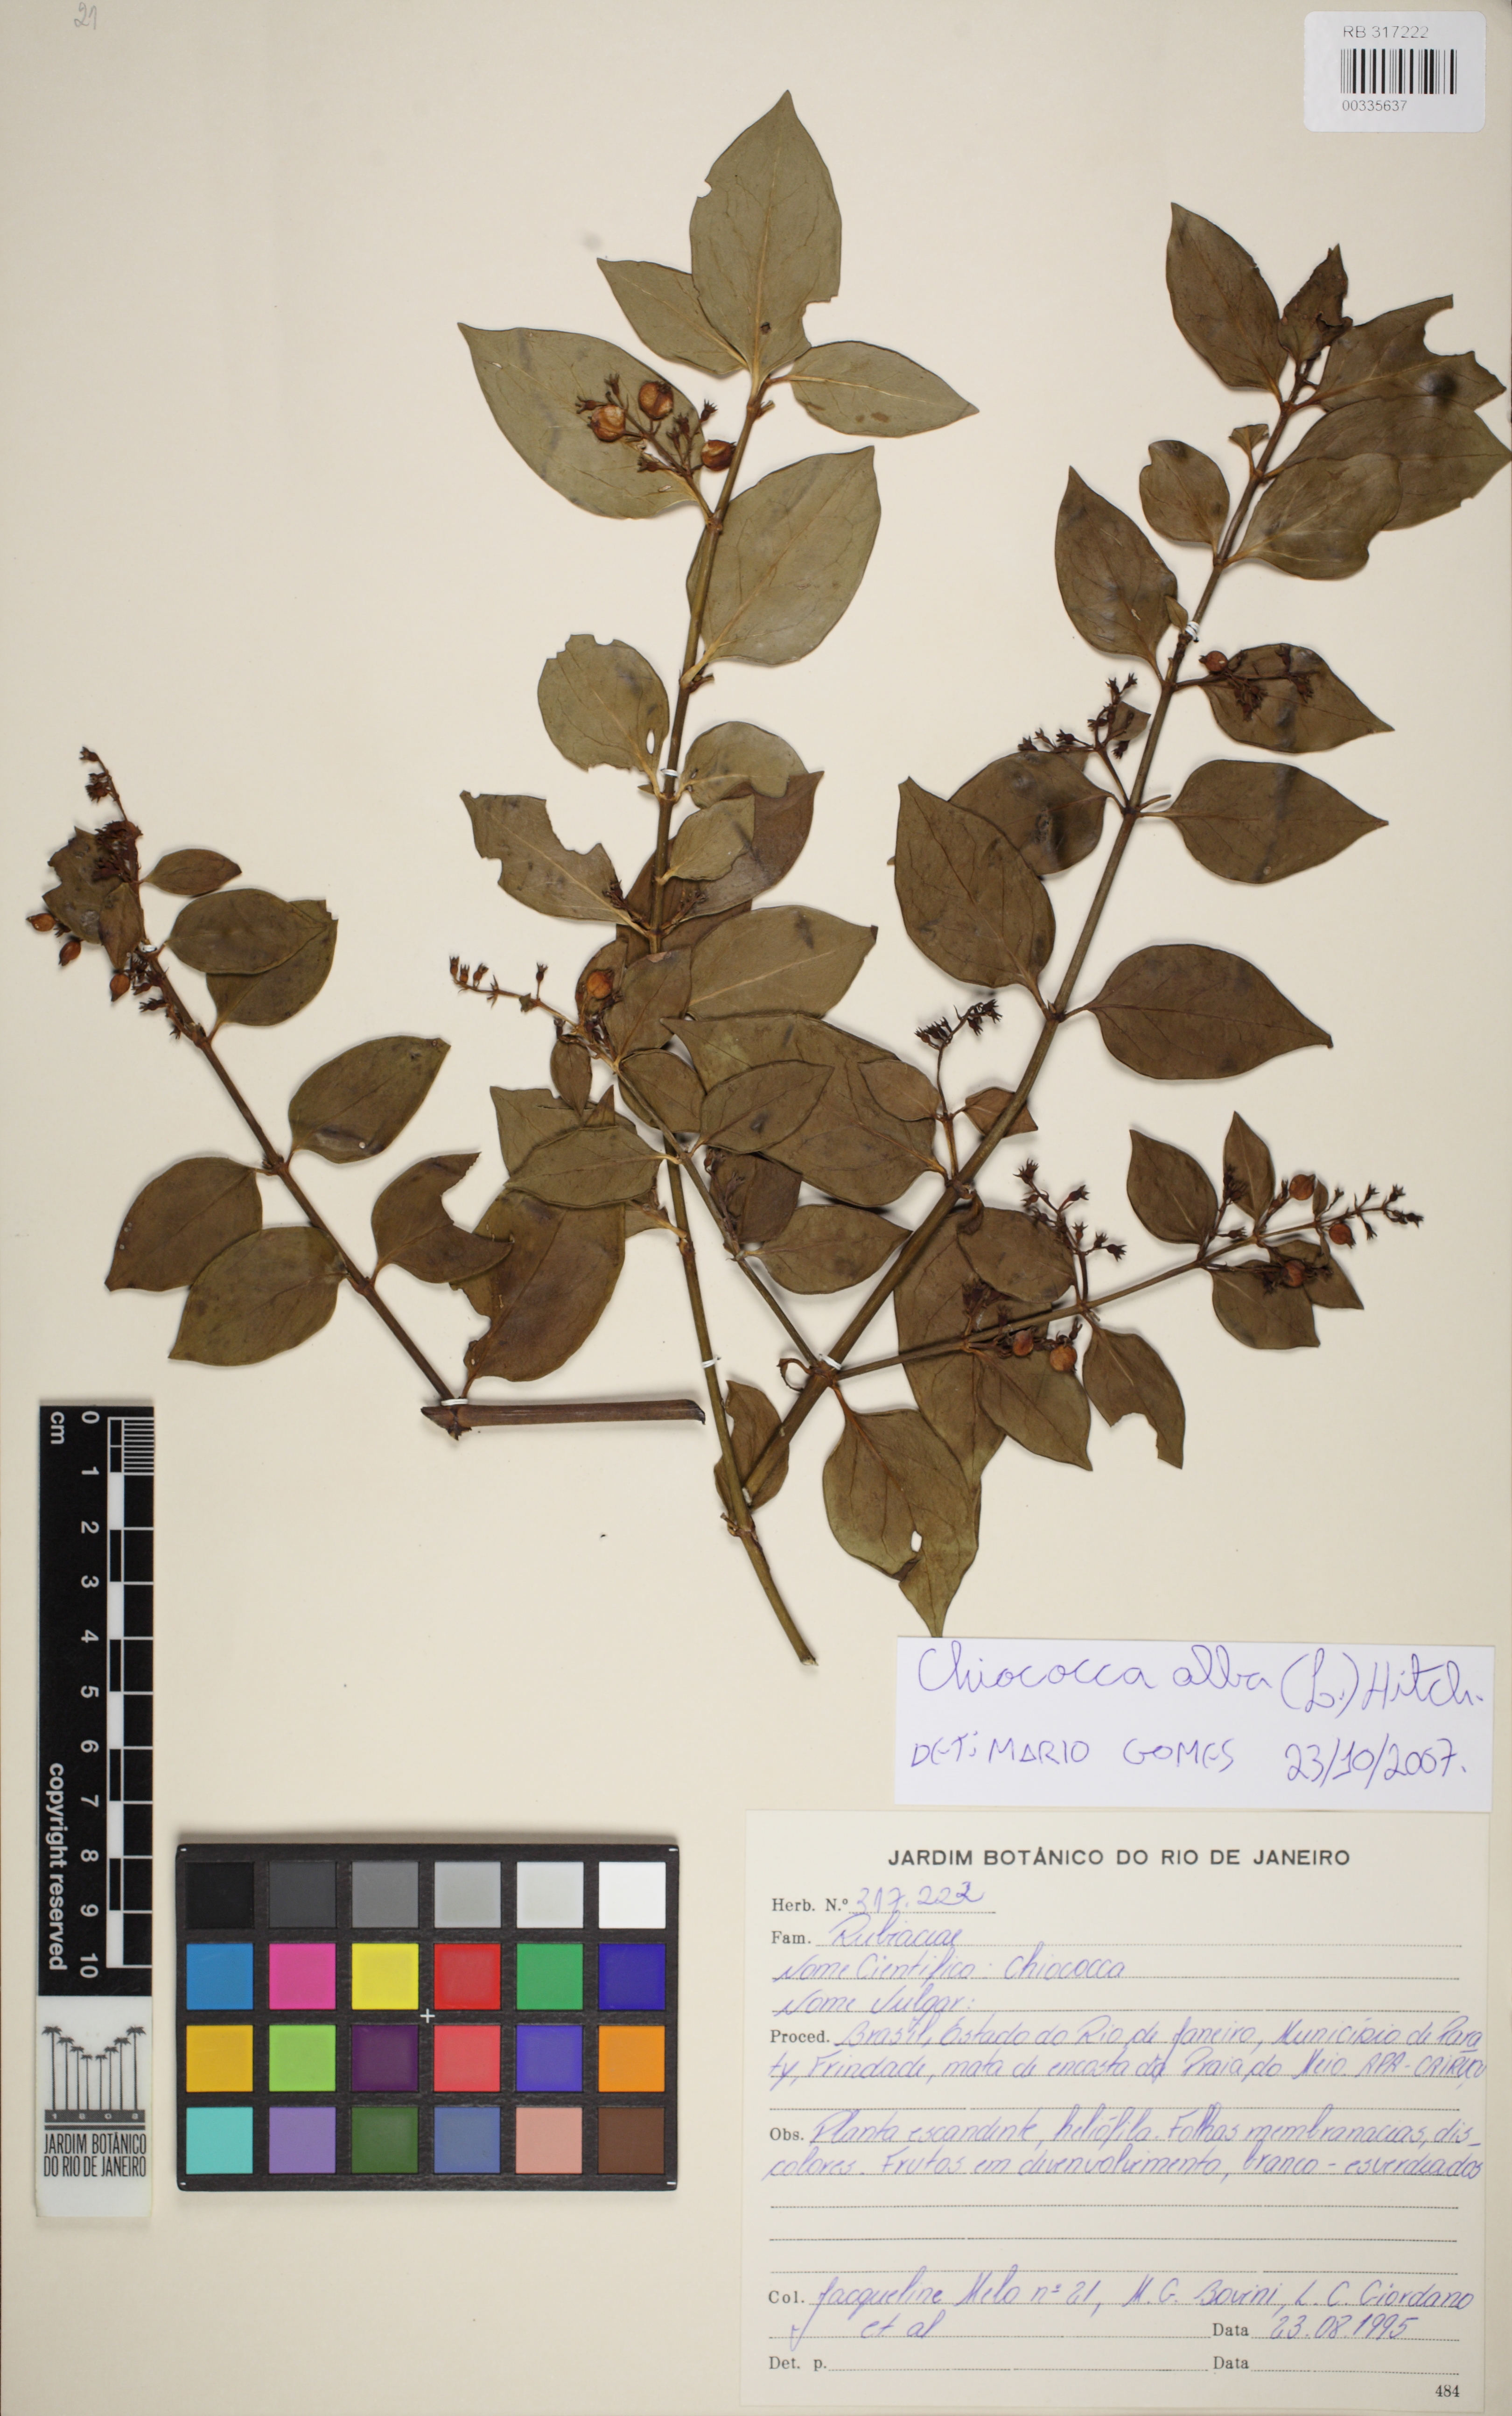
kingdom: Plantae
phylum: Tracheophyta
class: Magnoliopsida
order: Gentianales
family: Rubiaceae
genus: Chiococca
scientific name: Chiococca alba
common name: Snowberry
